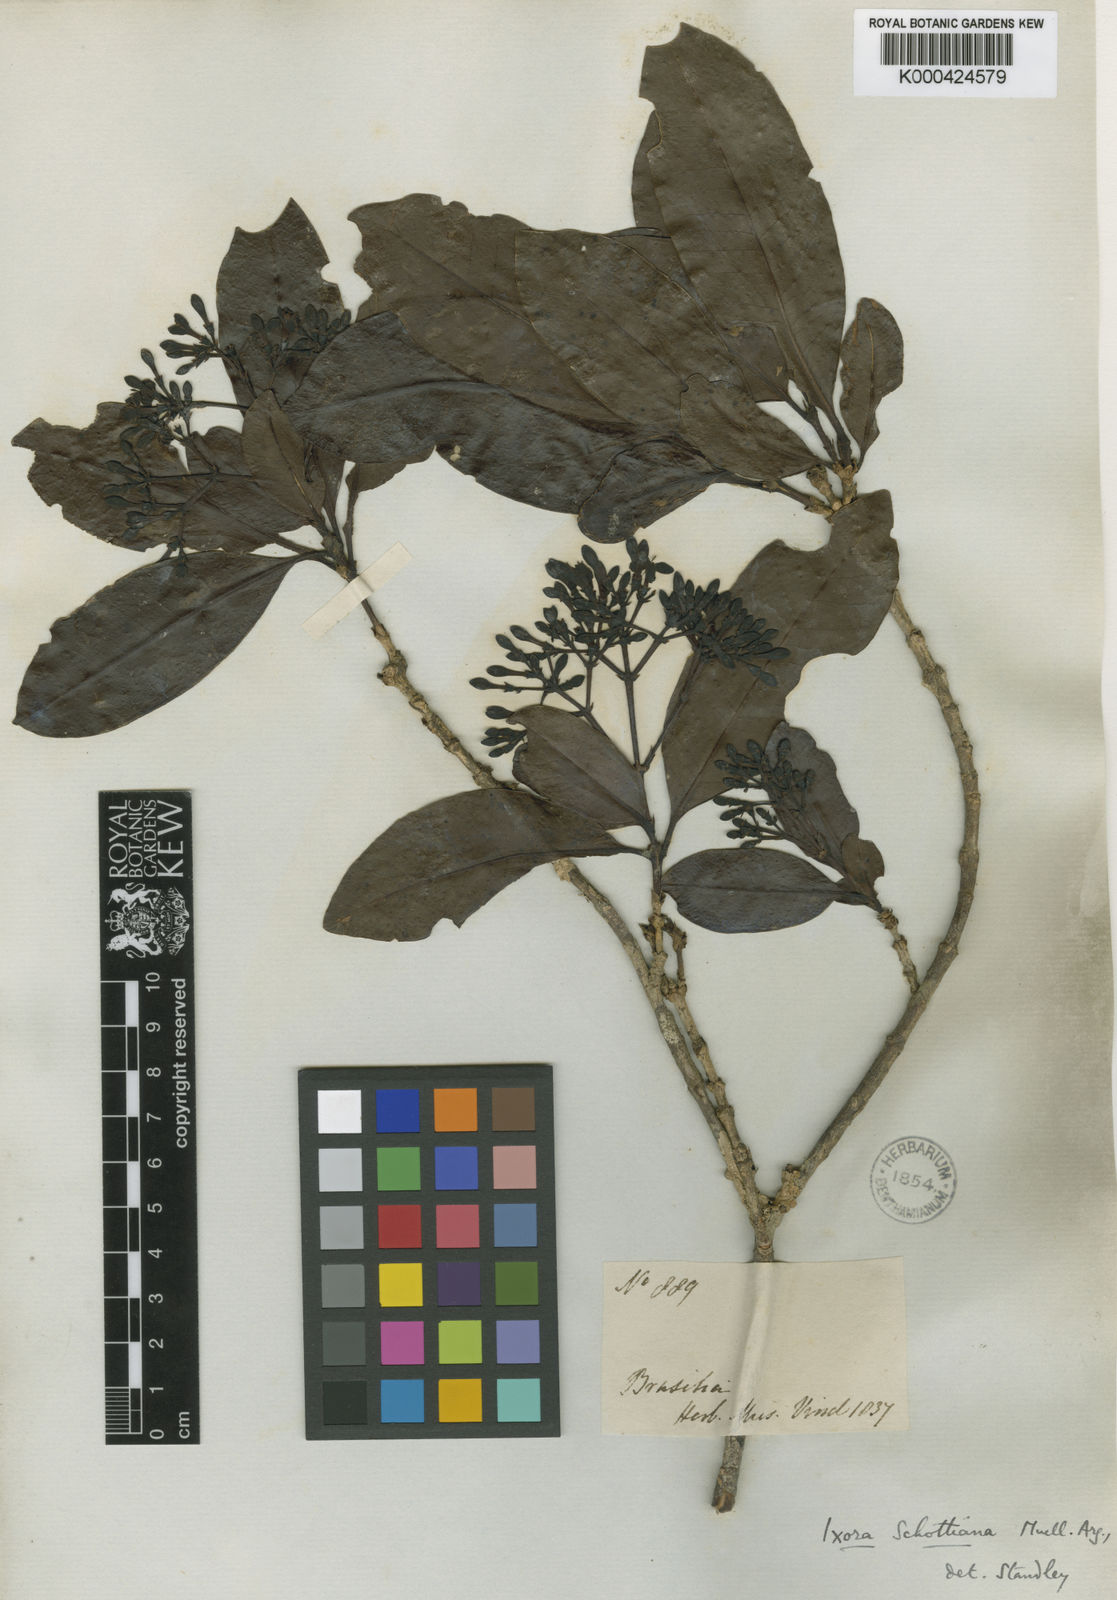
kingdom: Plantae
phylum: Tracheophyta
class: Magnoliopsida
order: Gentianales
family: Rubiaceae
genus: Ixora
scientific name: Ixora
